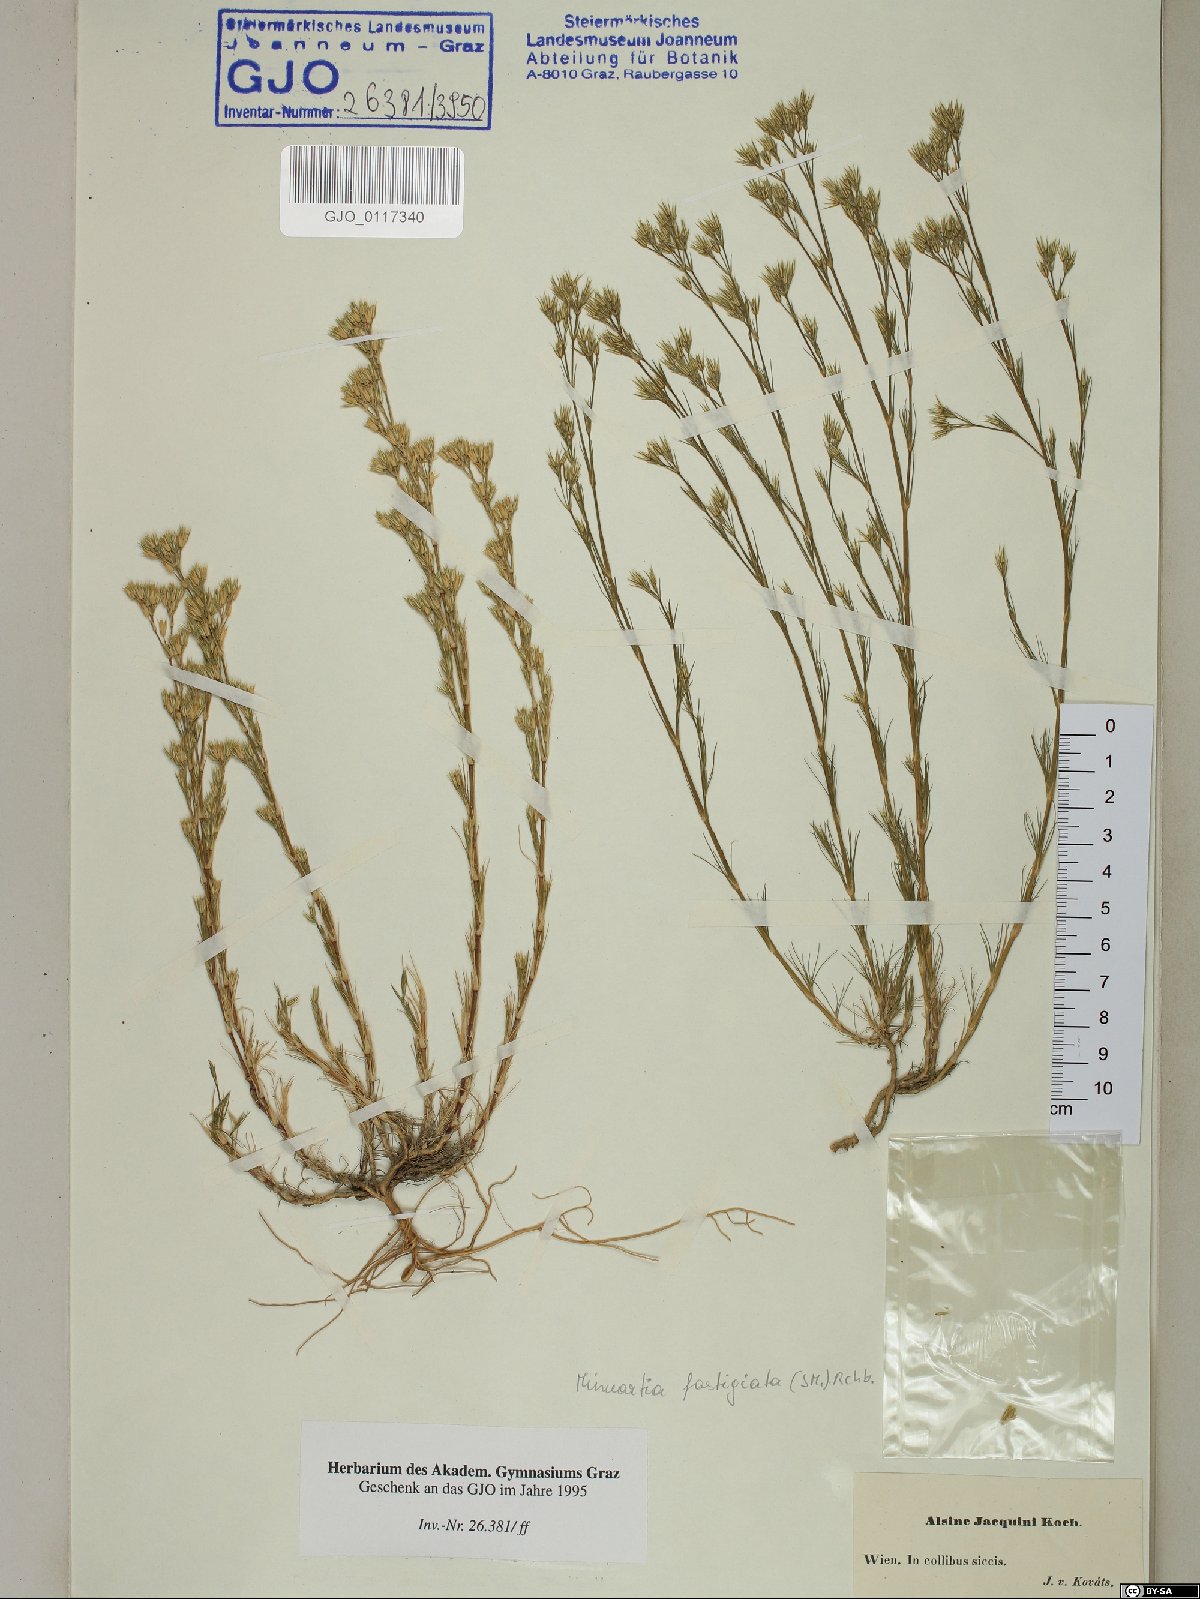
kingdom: Plantae
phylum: Tracheophyta
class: Magnoliopsida
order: Caryophyllales
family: Caryophyllaceae
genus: Minuartia
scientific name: Minuartia mucronata
